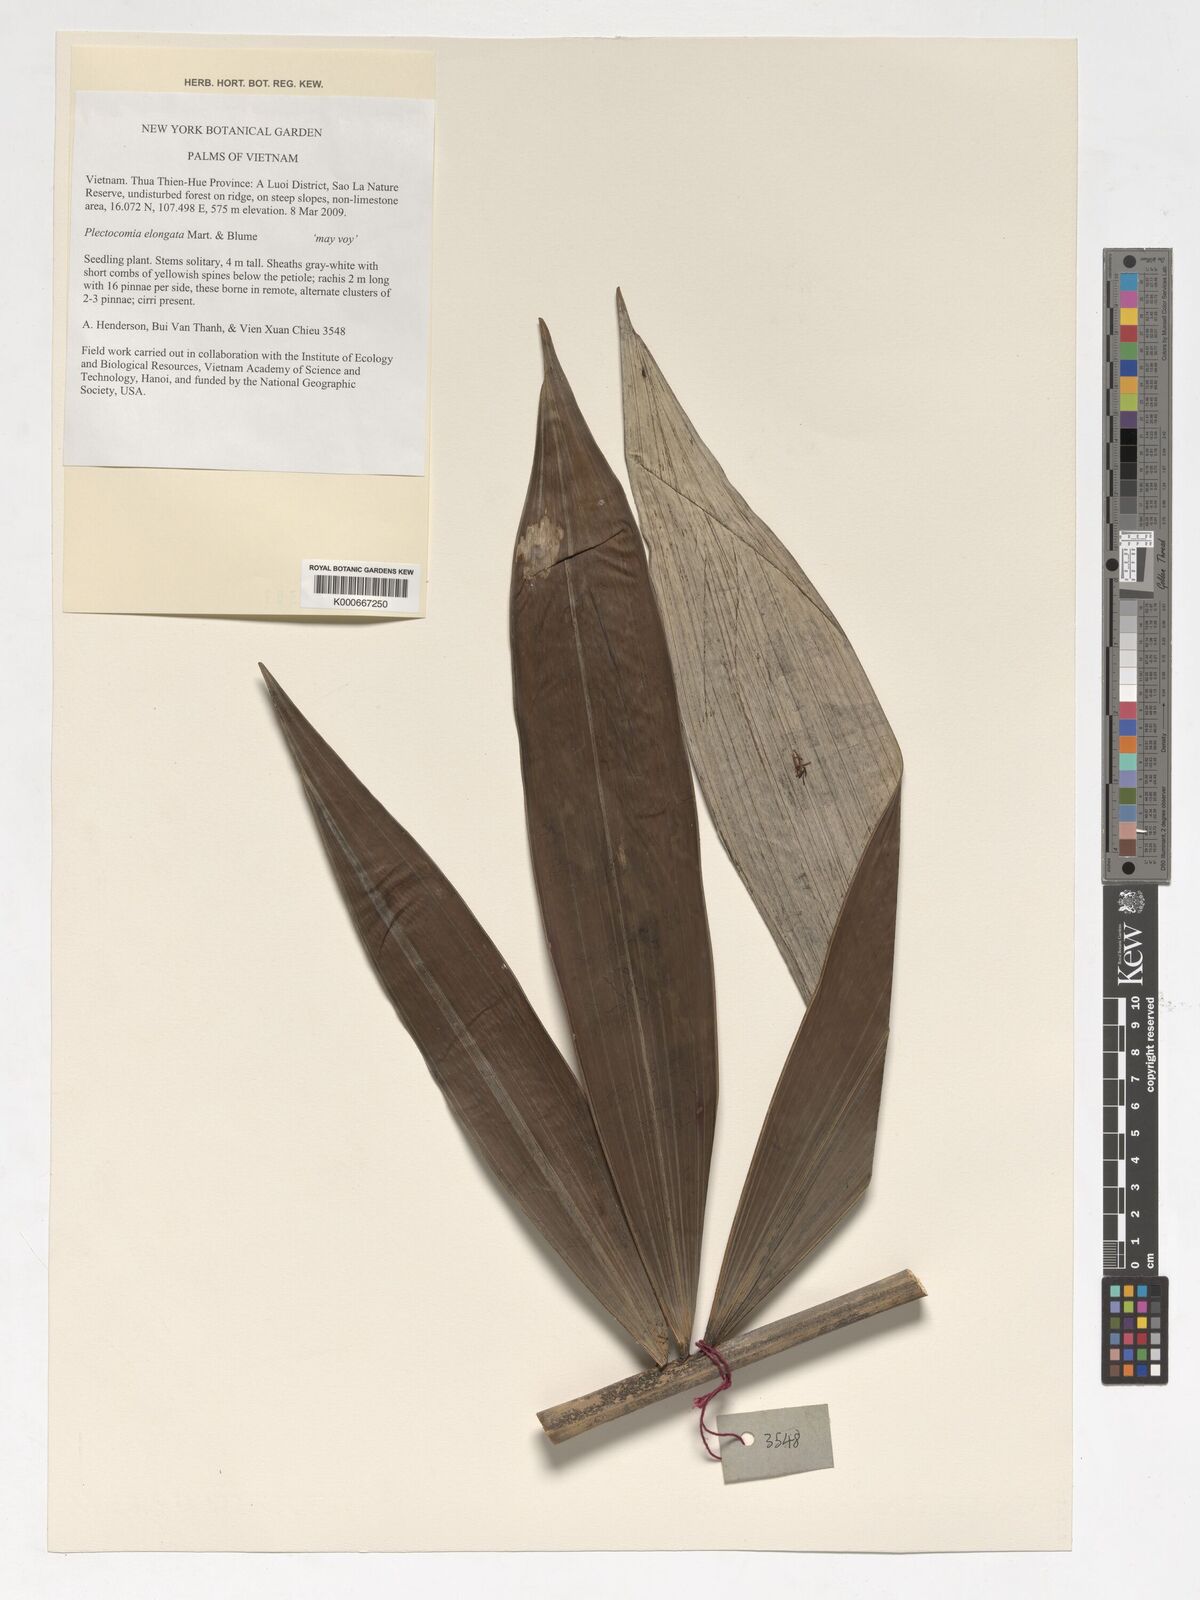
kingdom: Plantae
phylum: Tracheophyta
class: Liliopsida
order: Arecales
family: Arecaceae
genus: Plectocomia
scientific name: Plectocomia elongata
